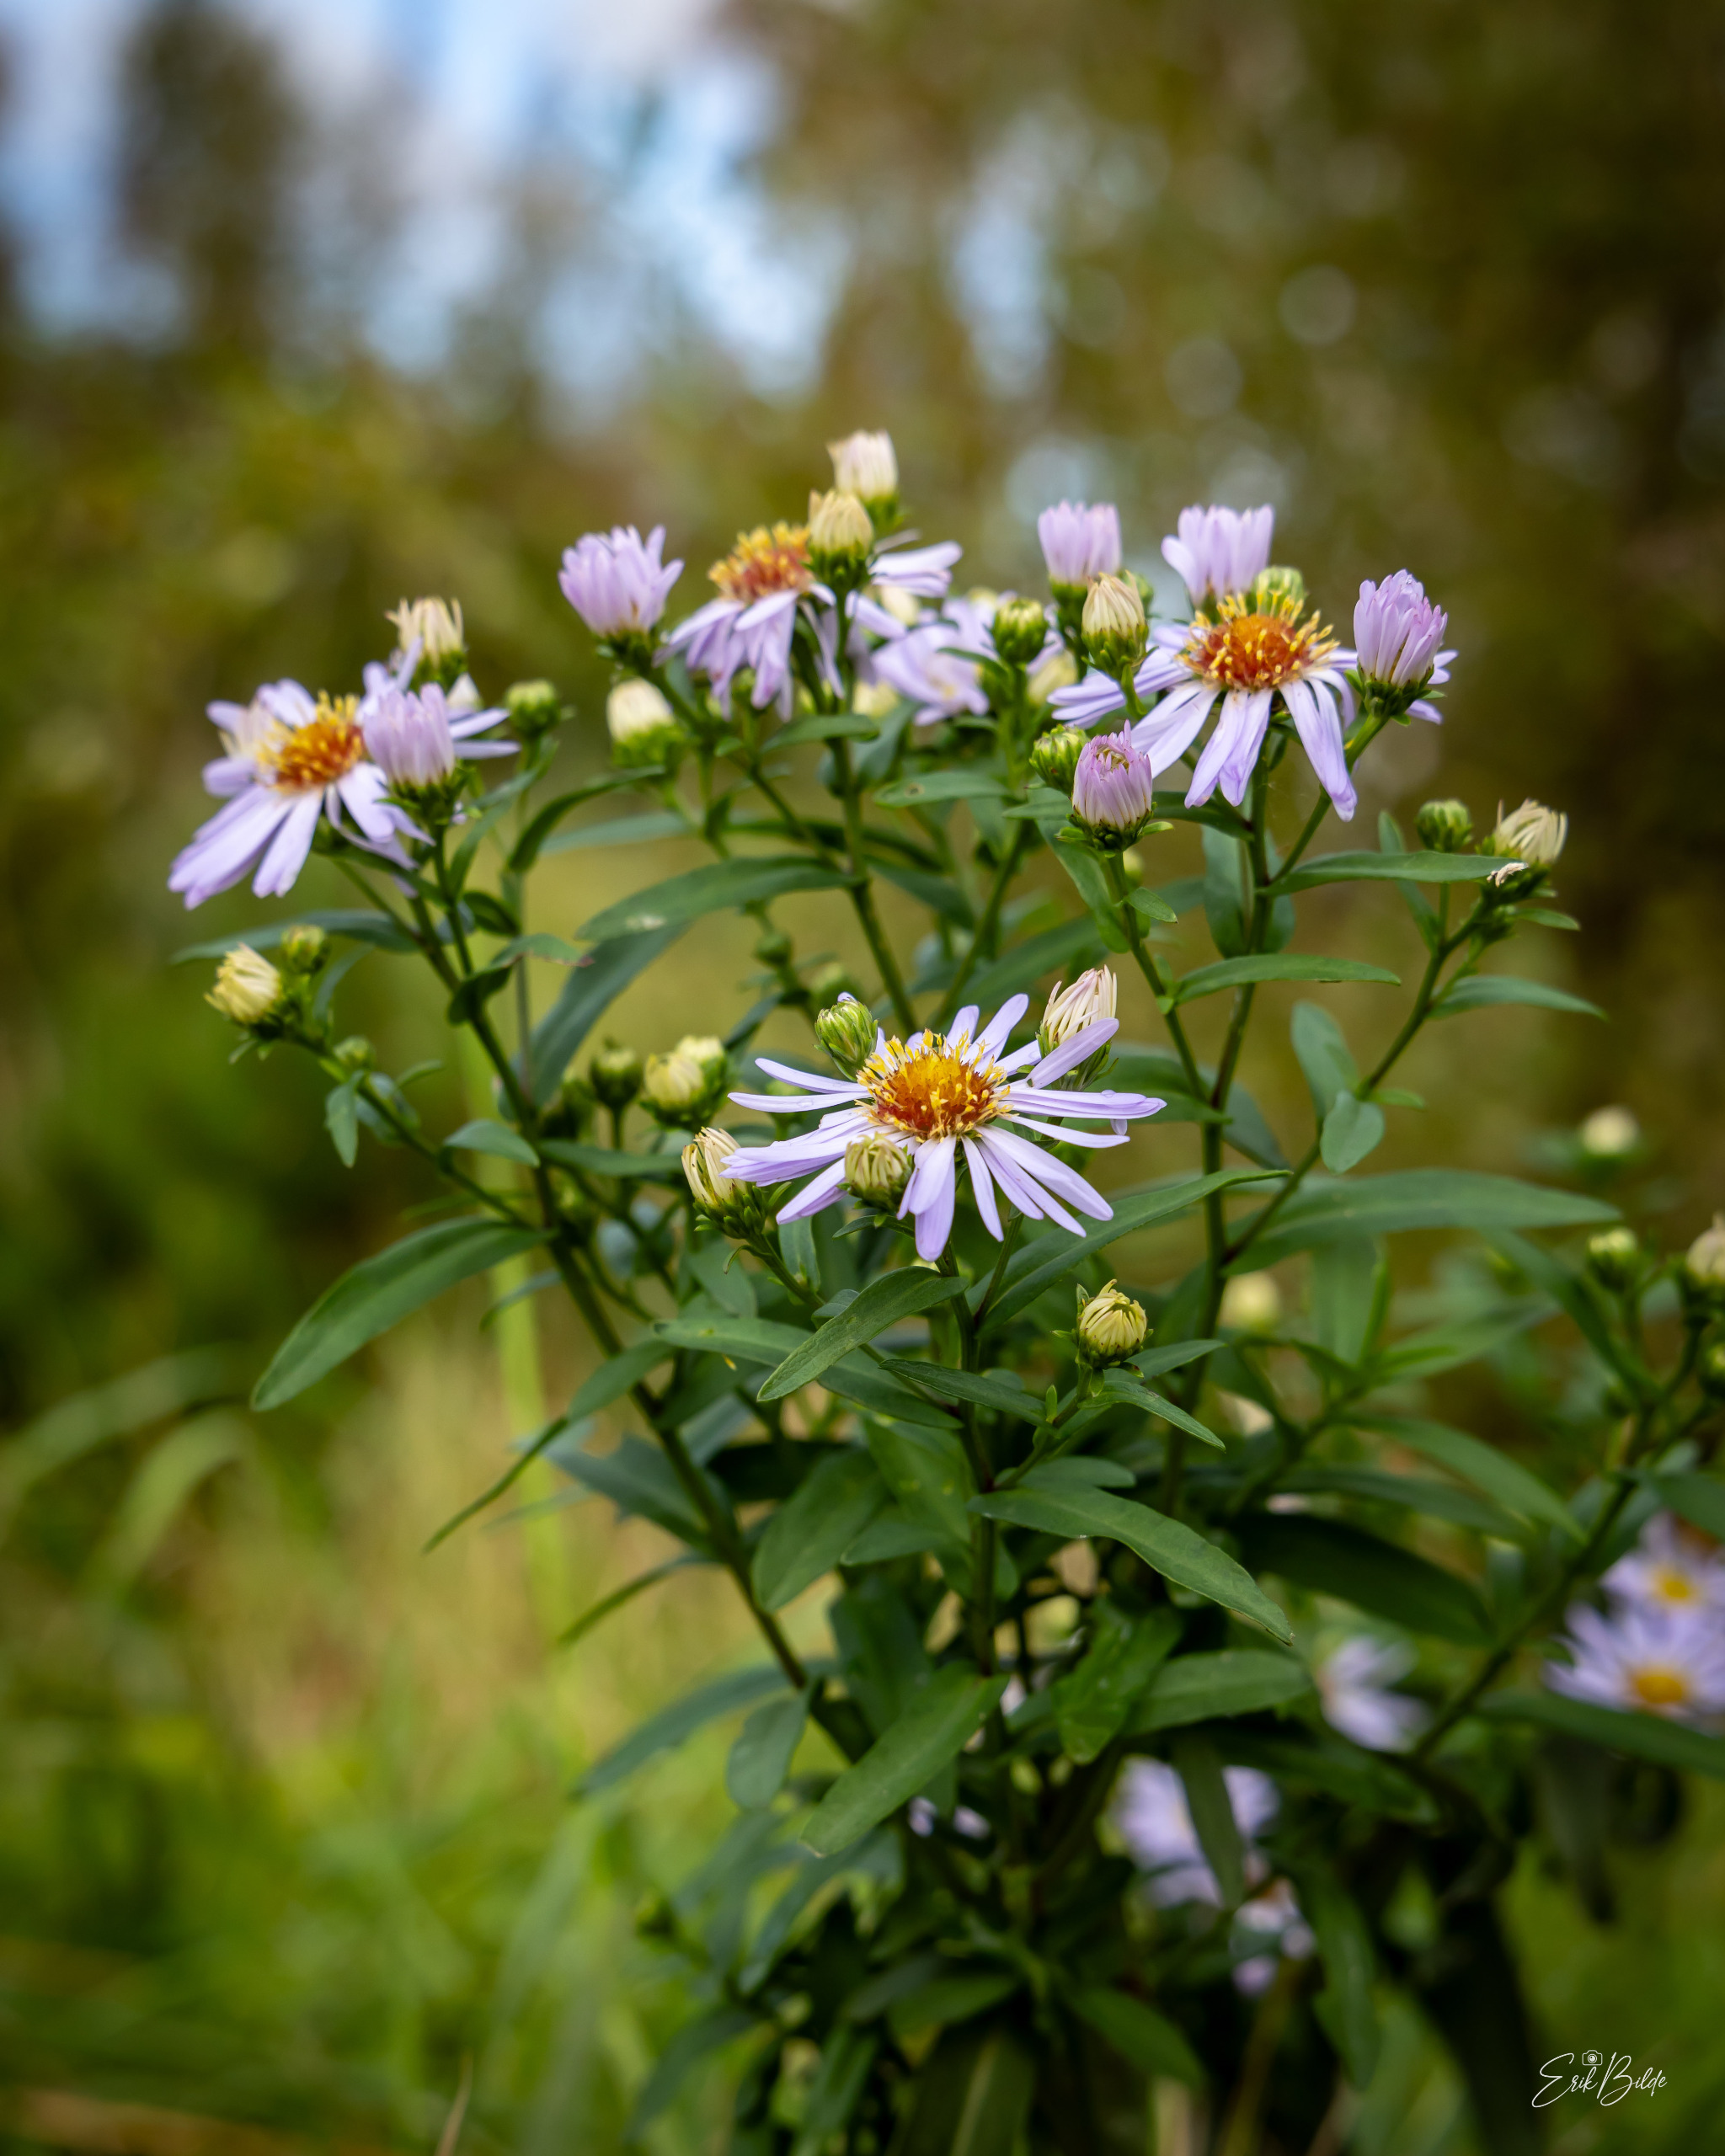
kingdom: Plantae
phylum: Tracheophyta
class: Magnoliopsida
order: Asterales
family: Asteraceae
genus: Symphyotrichum
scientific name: Symphyotrichum versicolor
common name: Broget asters
